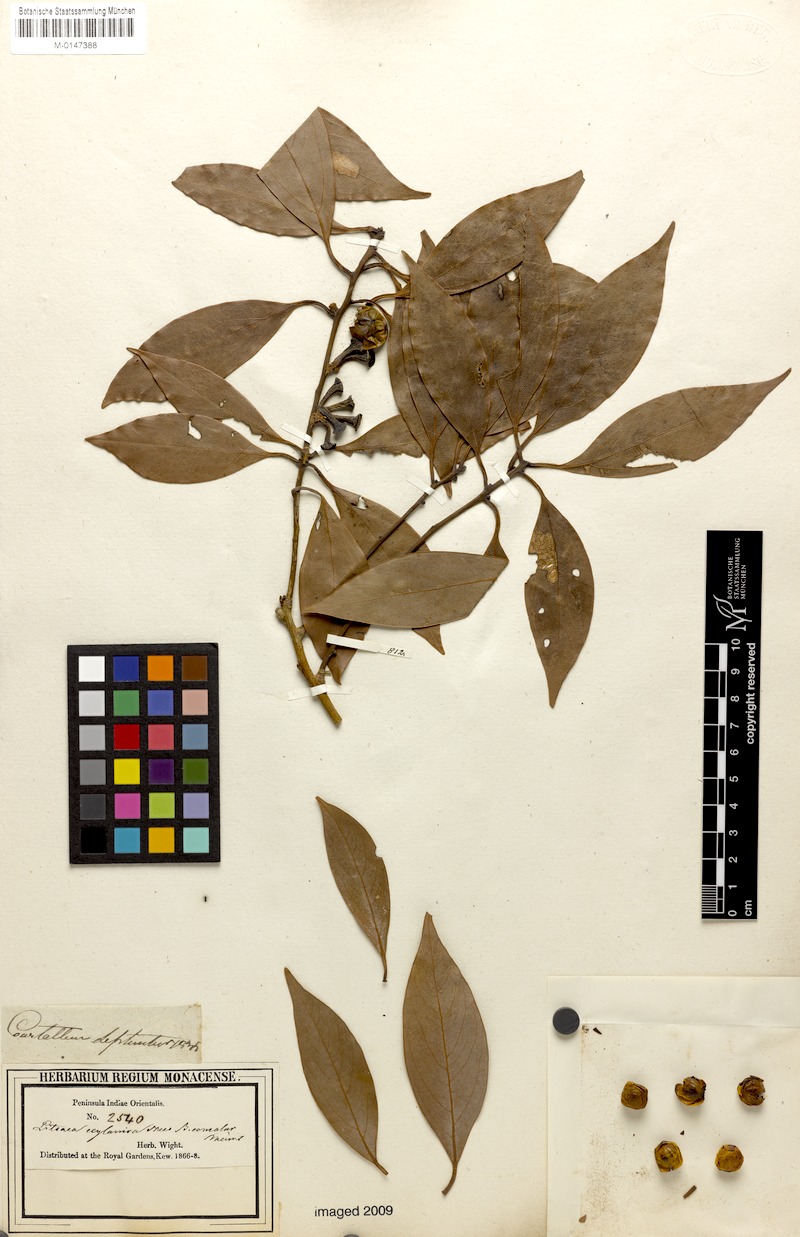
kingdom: Plantae
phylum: Tracheophyta
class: Magnoliopsida
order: Laurales
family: Lauraceae
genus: Neolitsea
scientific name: Neolitsea foliosa
